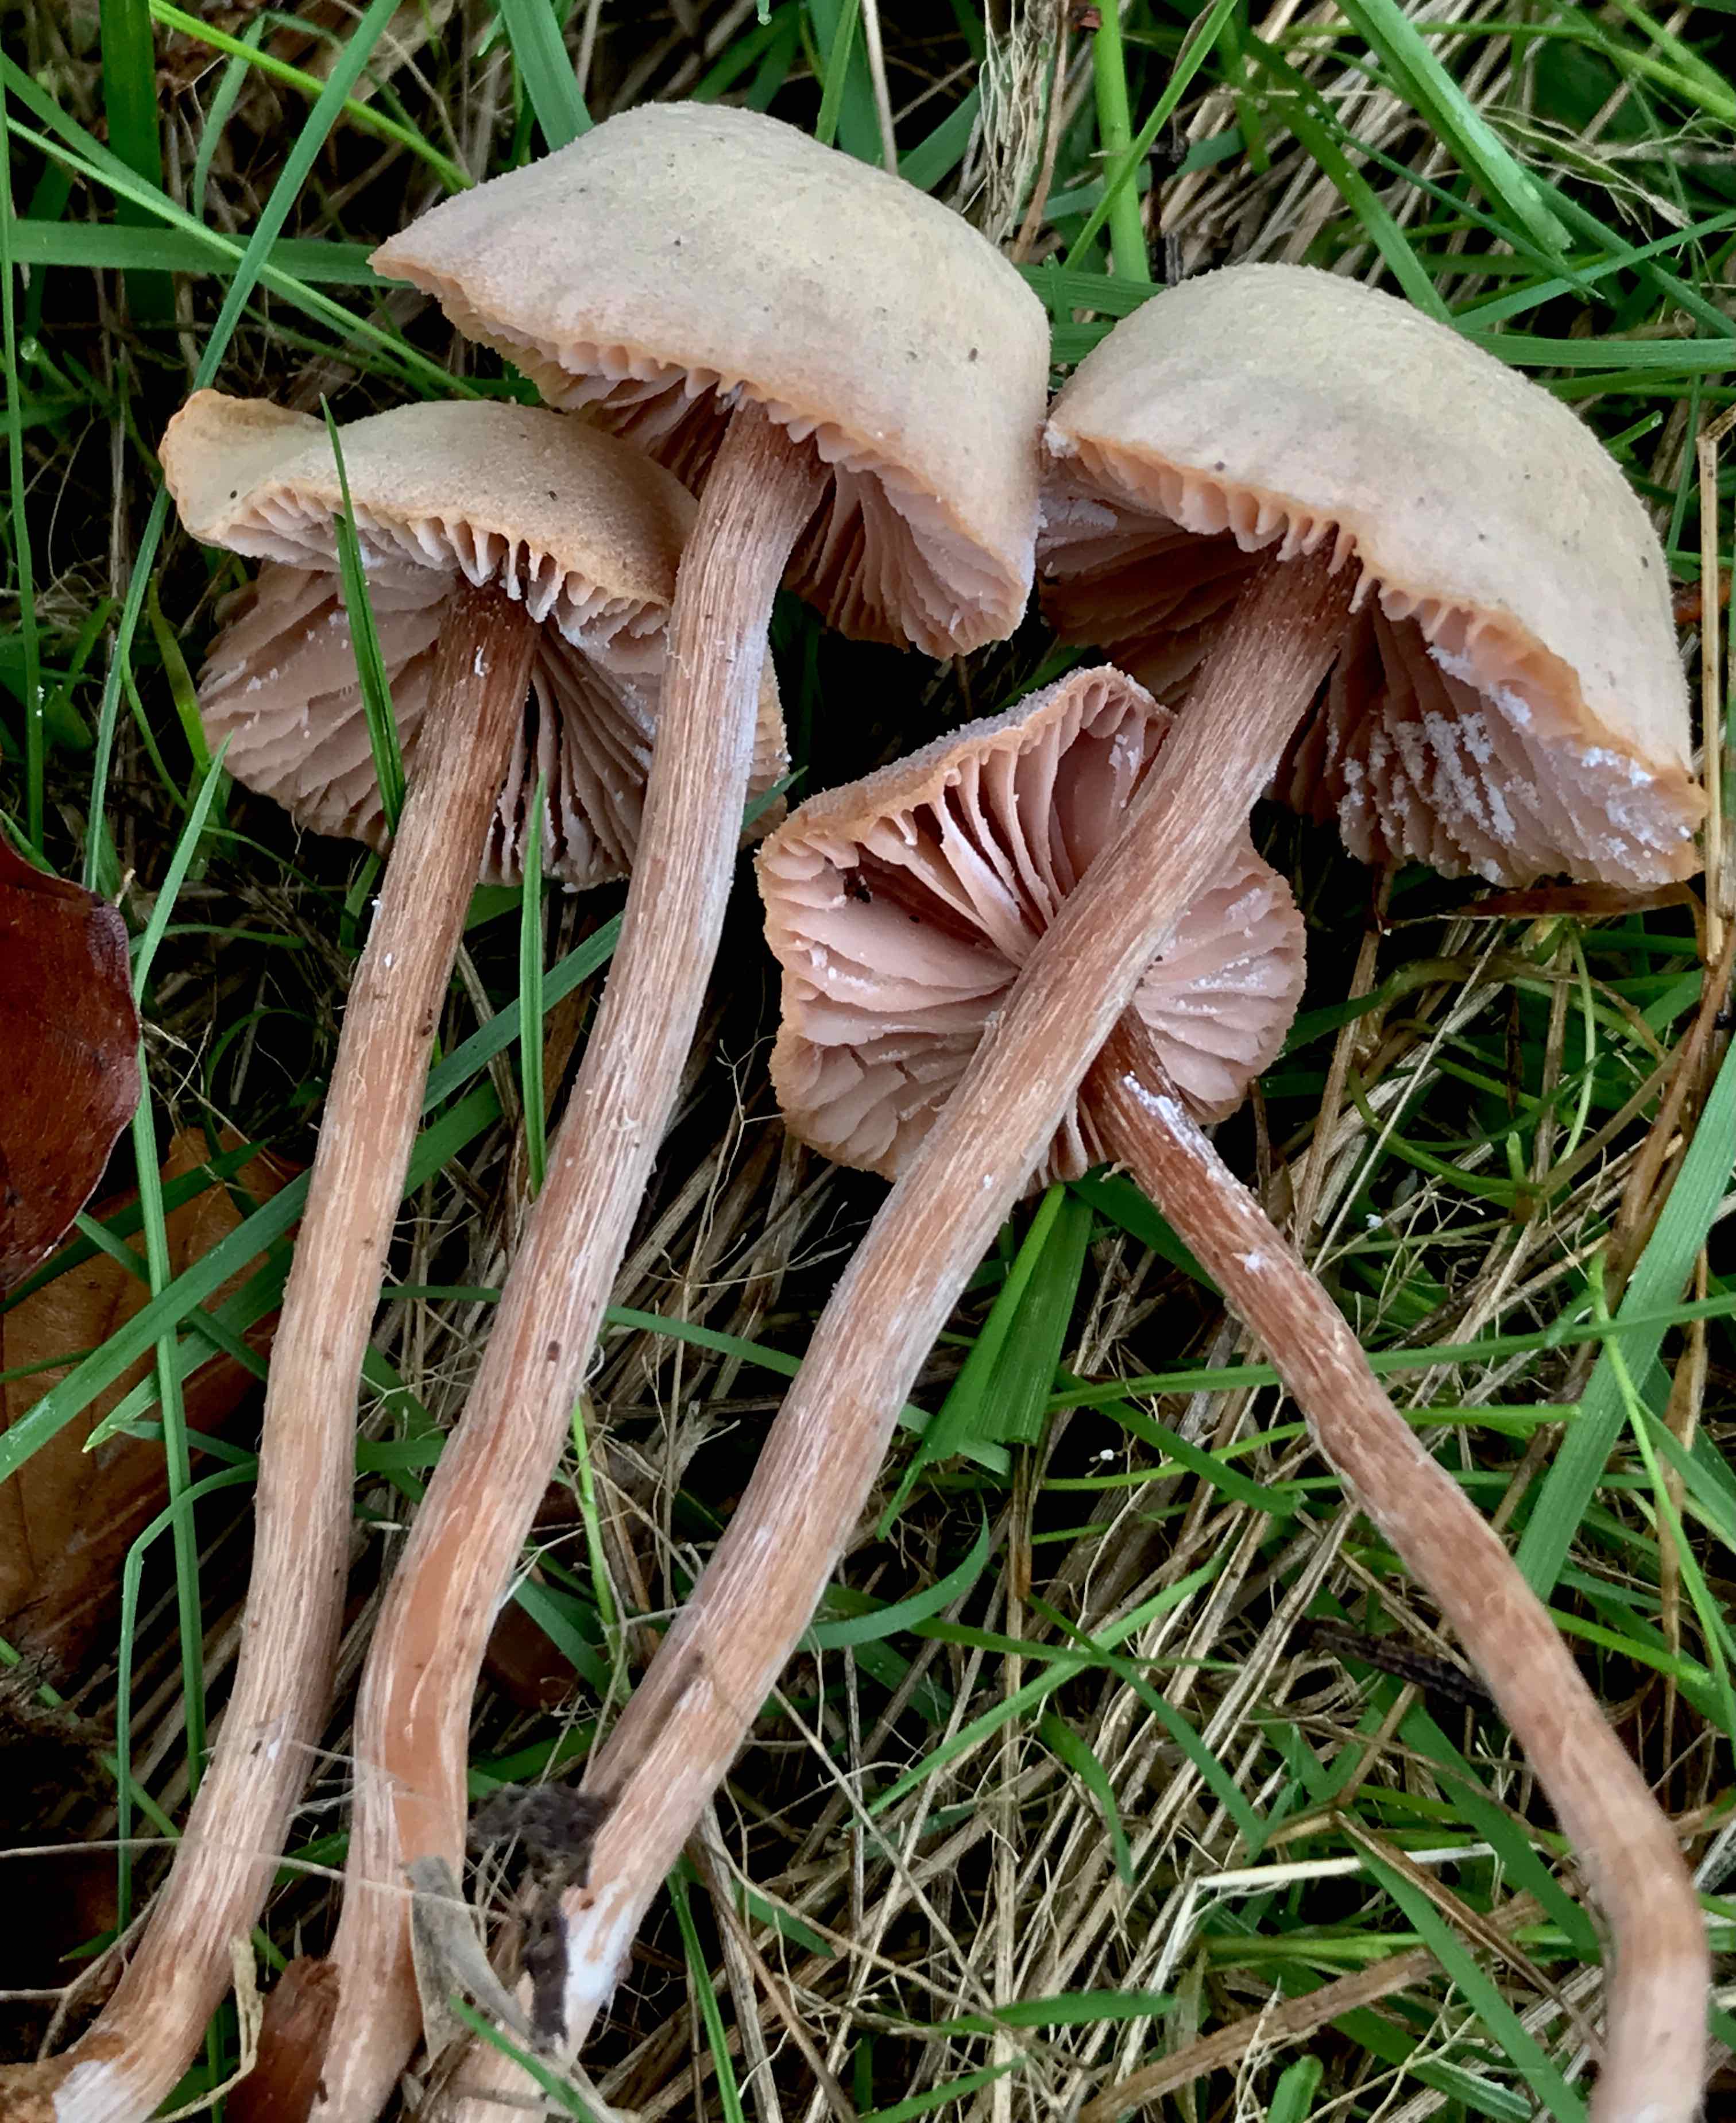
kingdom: Fungi
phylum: Basidiomycota
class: Agaricomycetes
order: Agaricales
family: Hydnangiaceae
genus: Laccaria
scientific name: Laccaria proxima
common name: stor ametysthat
